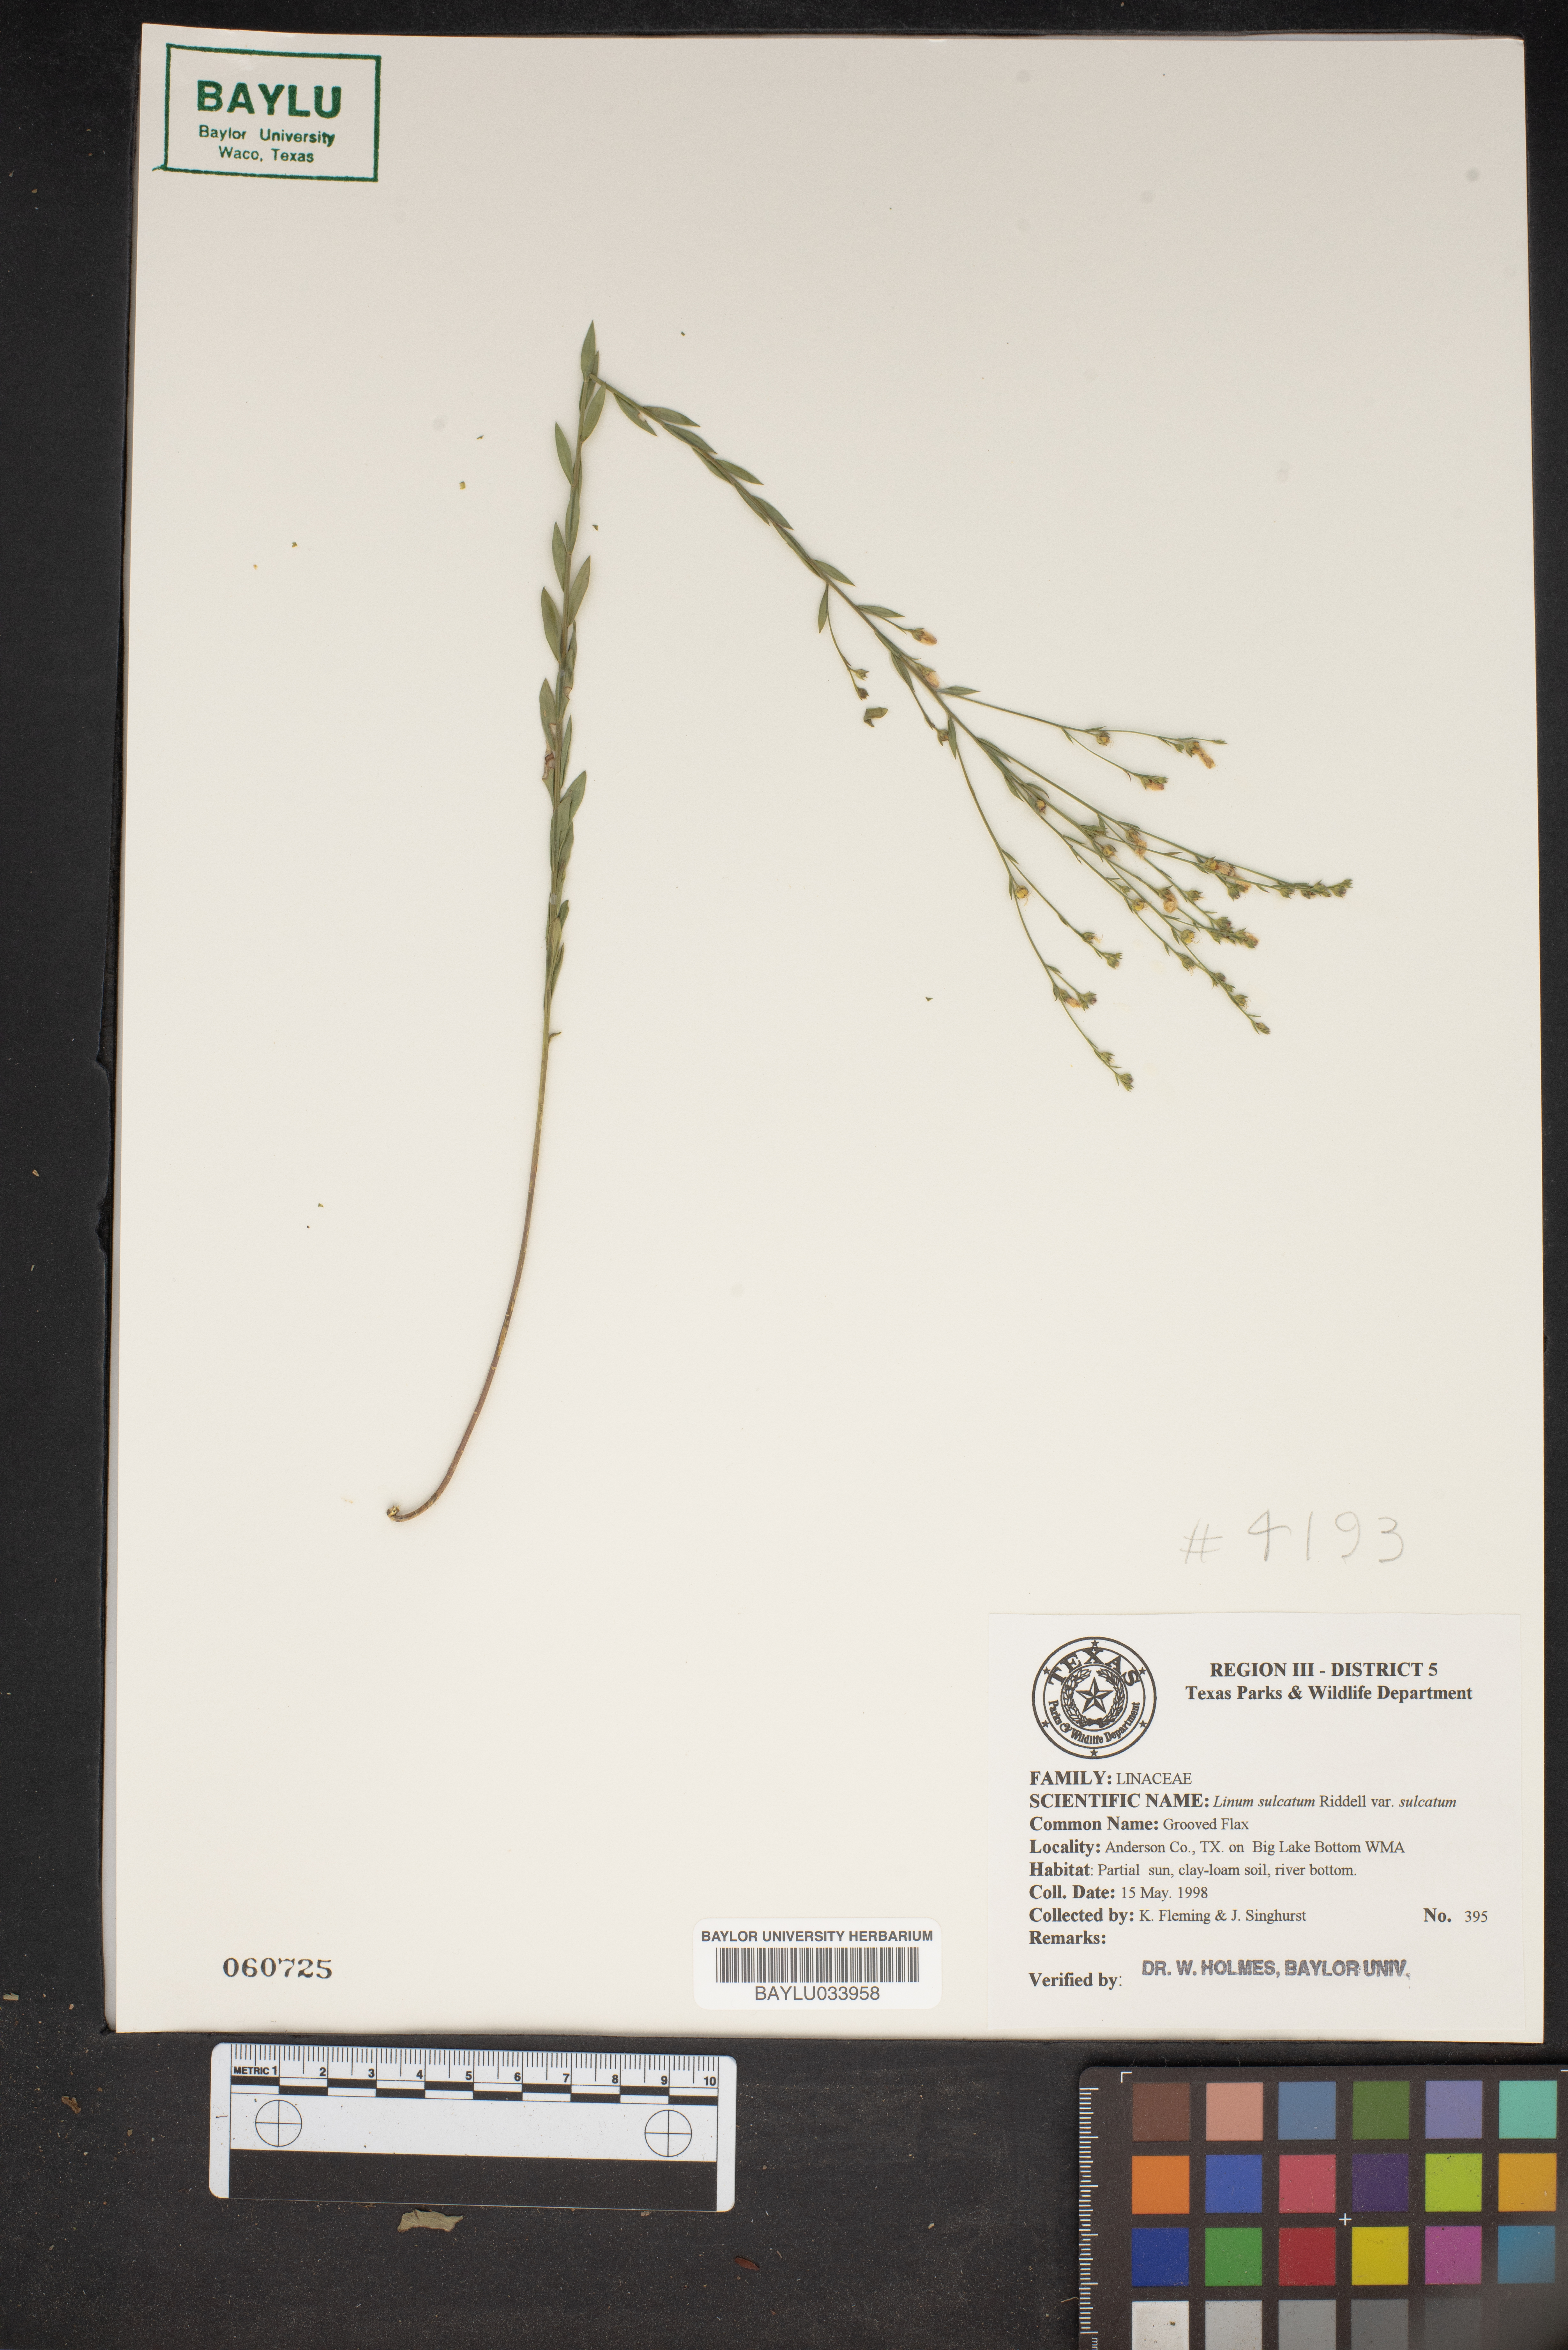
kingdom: Plantae
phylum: Tracheophyta
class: Magnoliopsida
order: Malpighiales
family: Linaceae
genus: Linum
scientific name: Linum sulcatum
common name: Grooved flax
